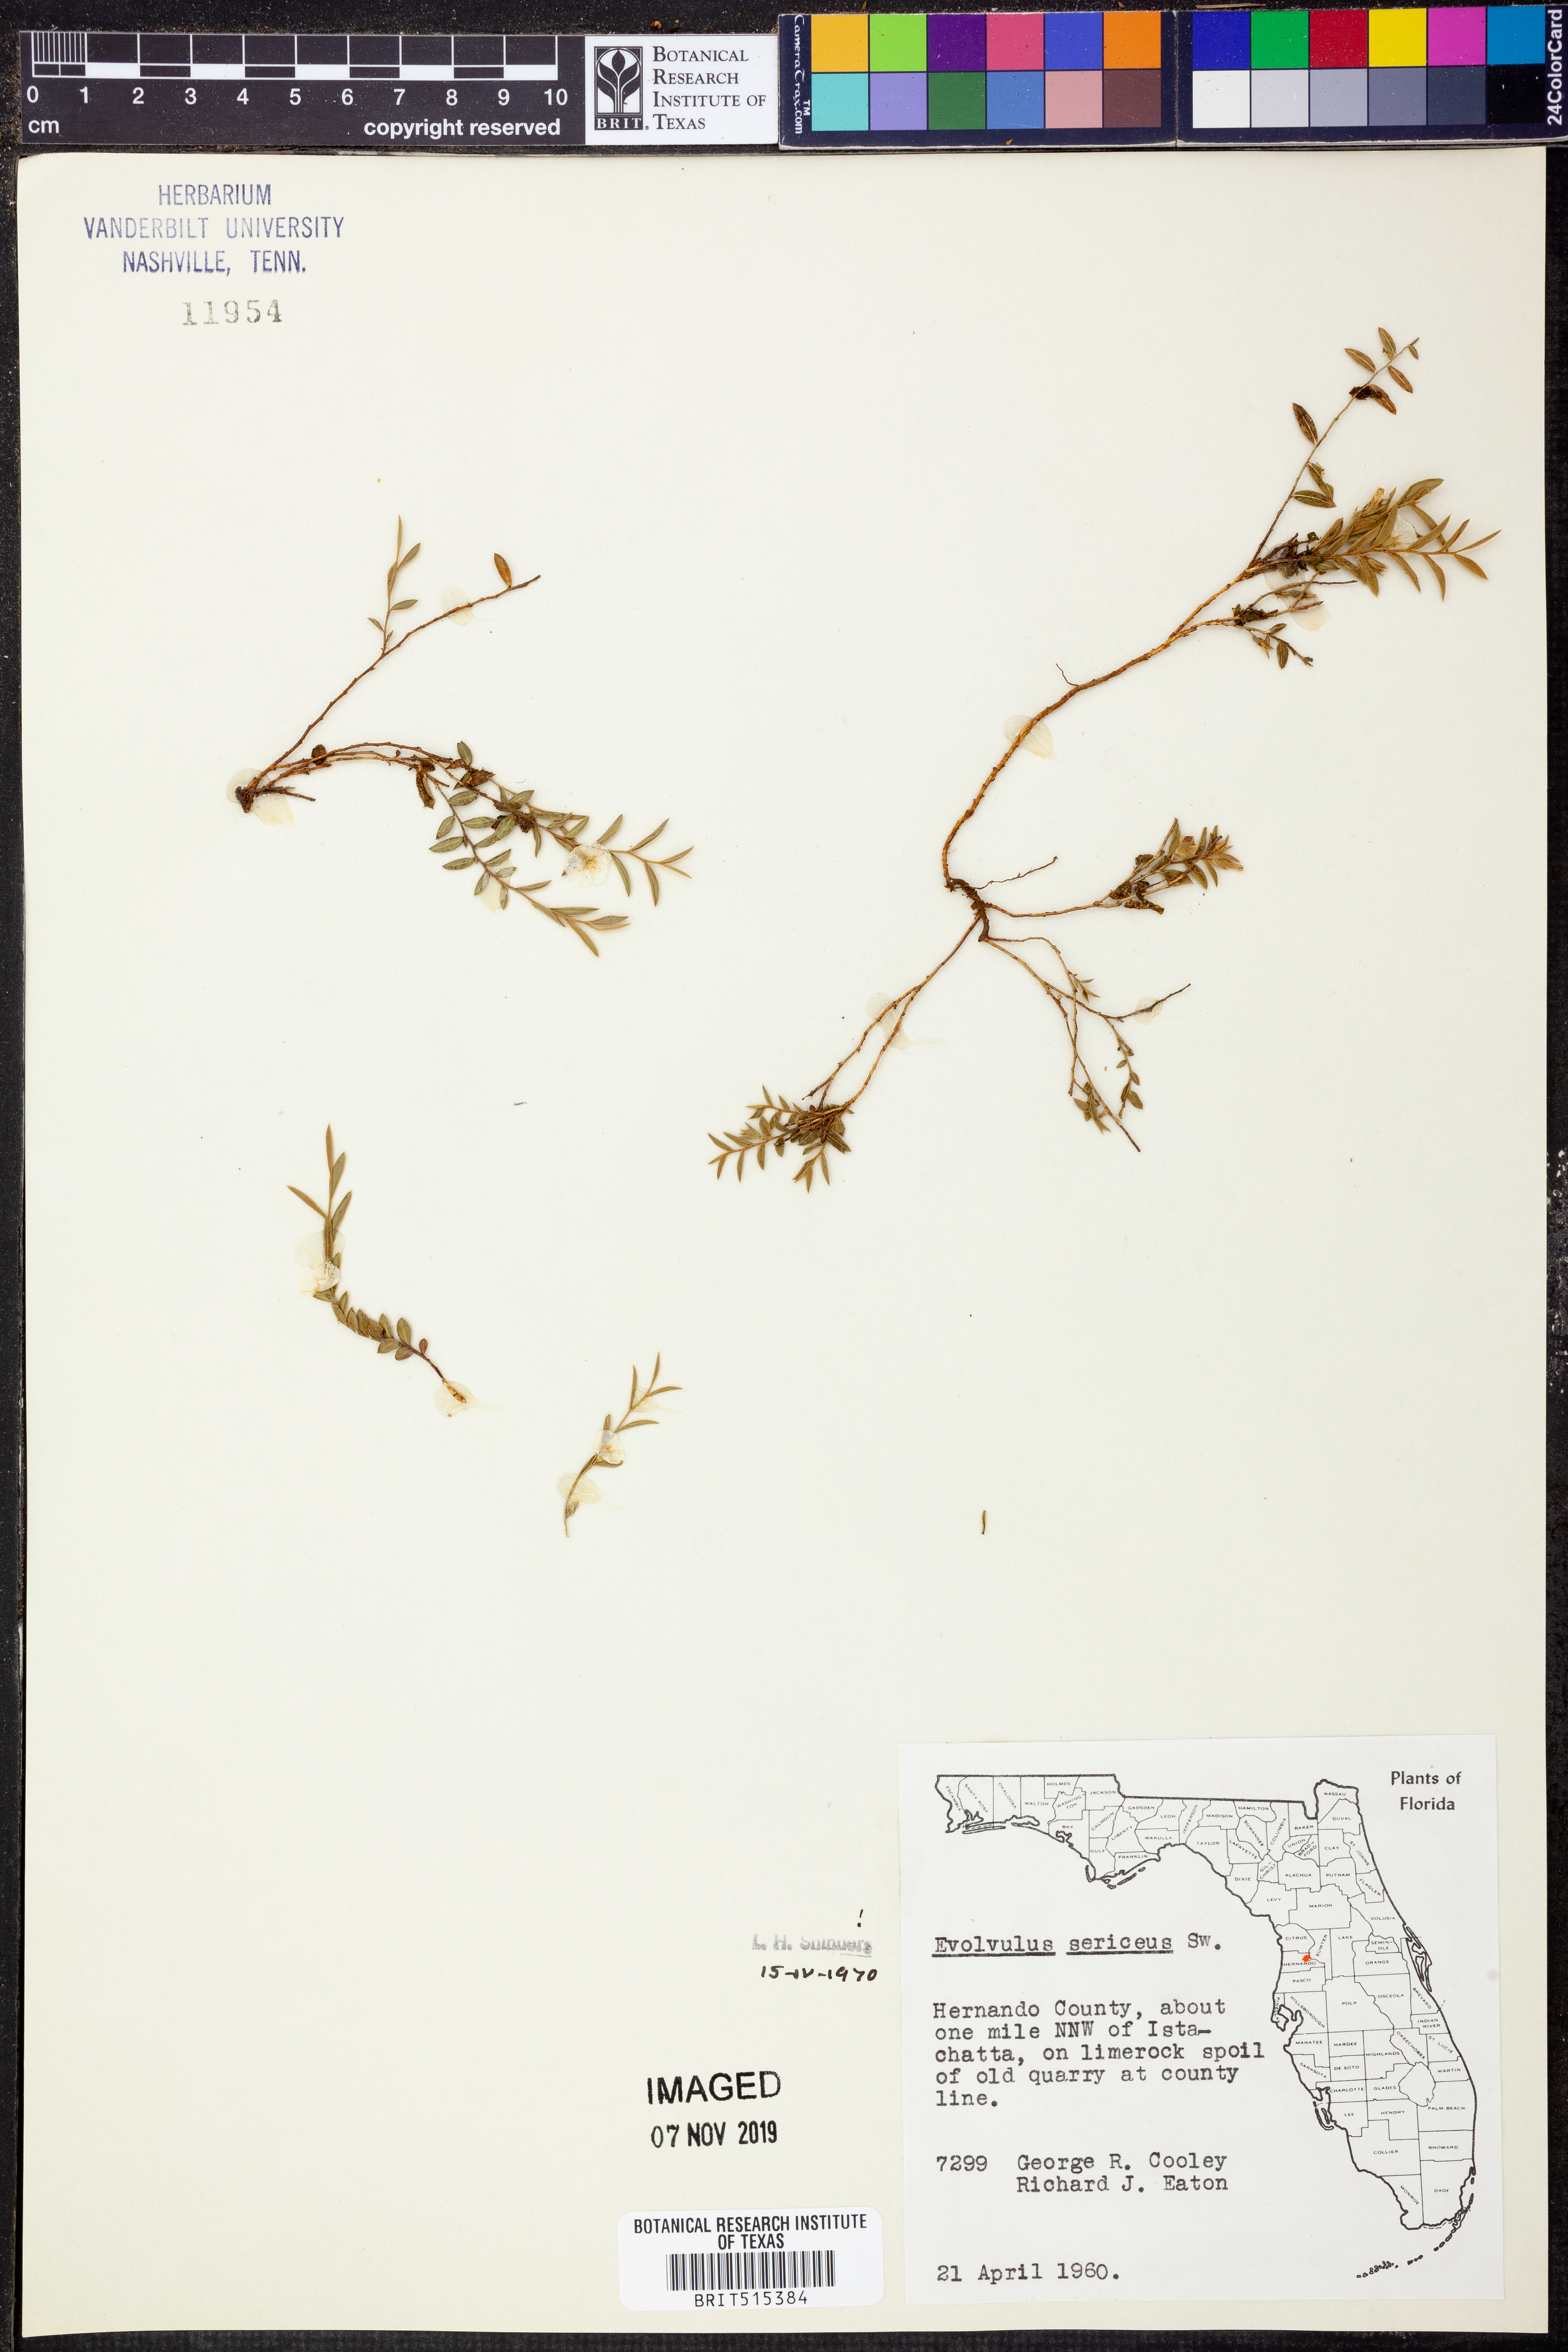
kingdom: Plantae
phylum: Tracheophyta
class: Magnoliopsida
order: Solanales
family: Convolvulaceae
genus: Evolvulus
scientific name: Evolvulus sericeus
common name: Blue dots
